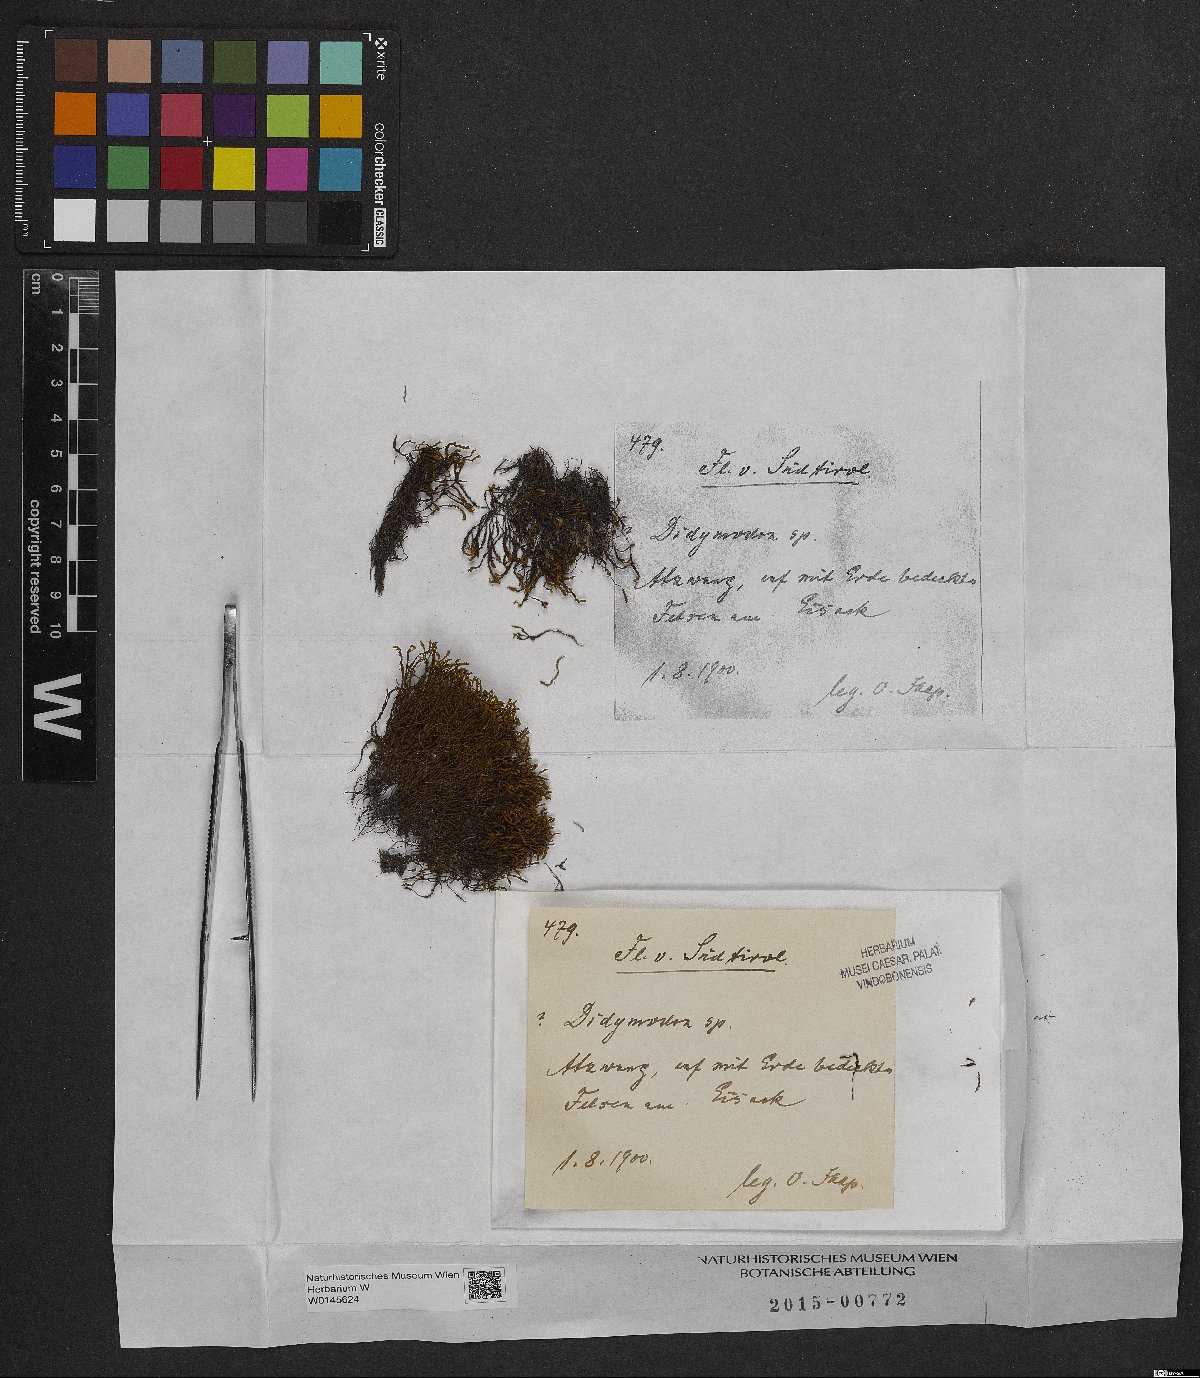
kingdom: Plantae
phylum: Bryophyta
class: Bryopsida
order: Pottiales
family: Pottiaceae
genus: Didymodon
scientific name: Didymodon
